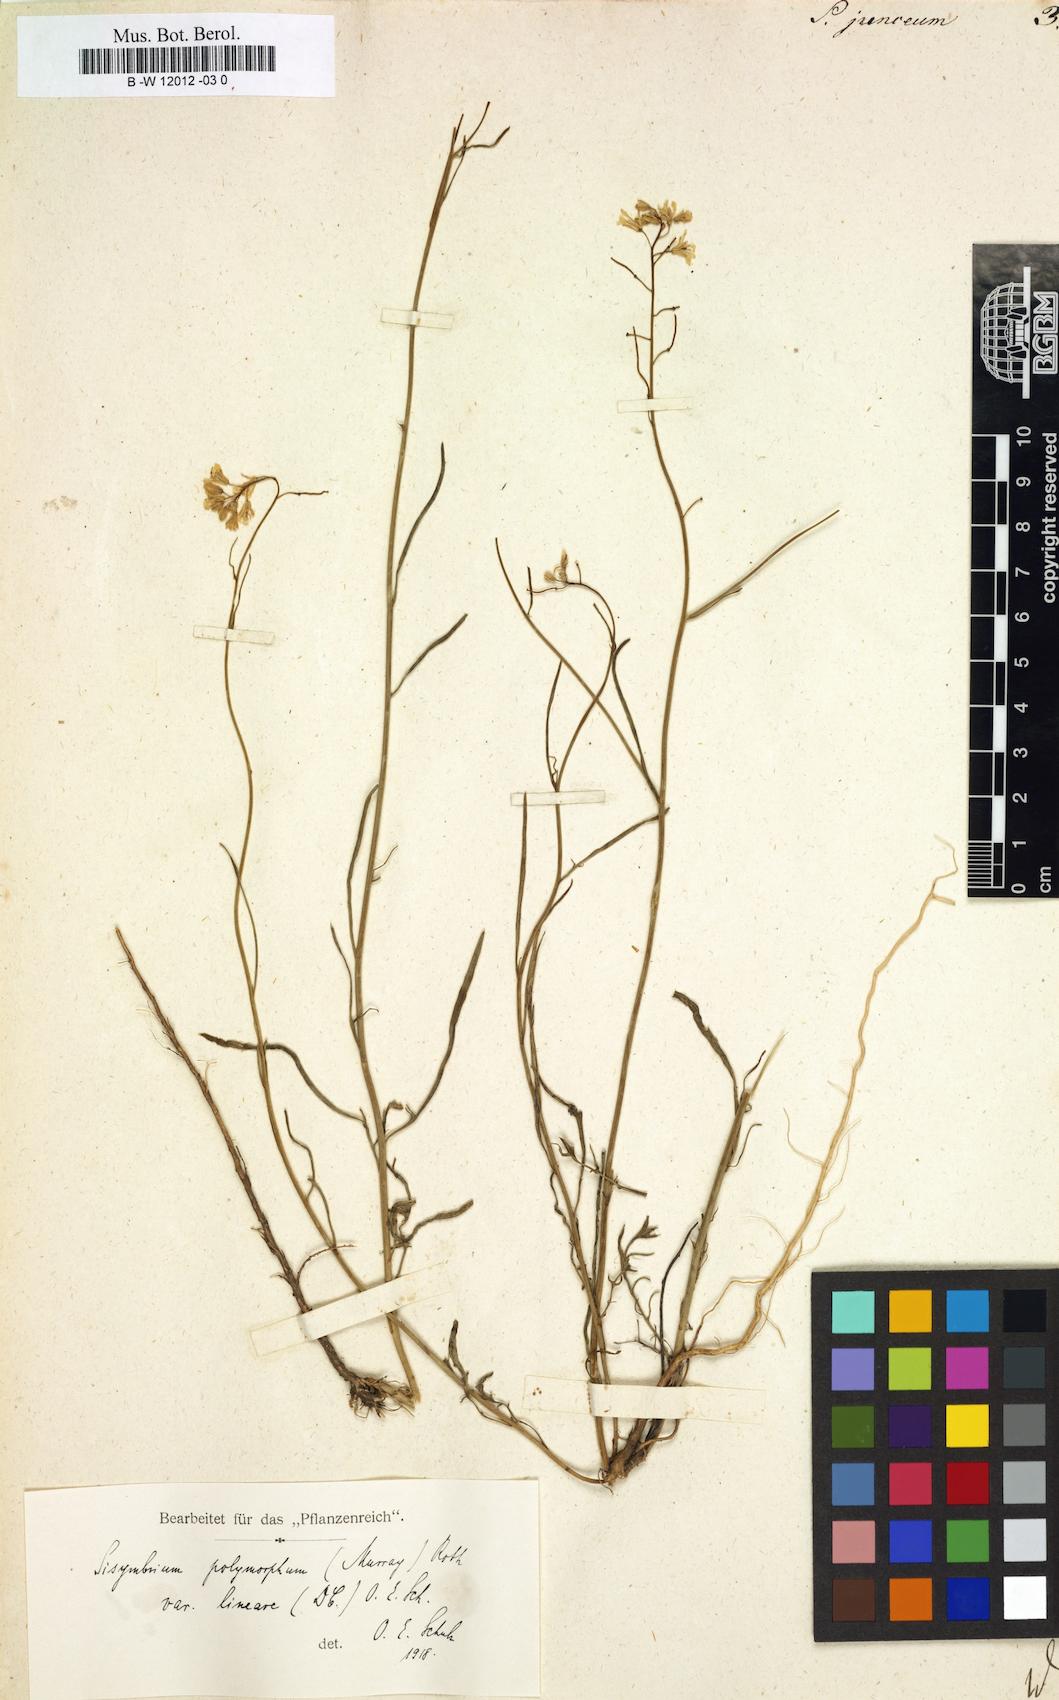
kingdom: Plantae
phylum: Tracheophyta
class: Magnoliopsida
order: Brassicales
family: Brassicaceae
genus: Sisymbrium
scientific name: Sisymbrium
